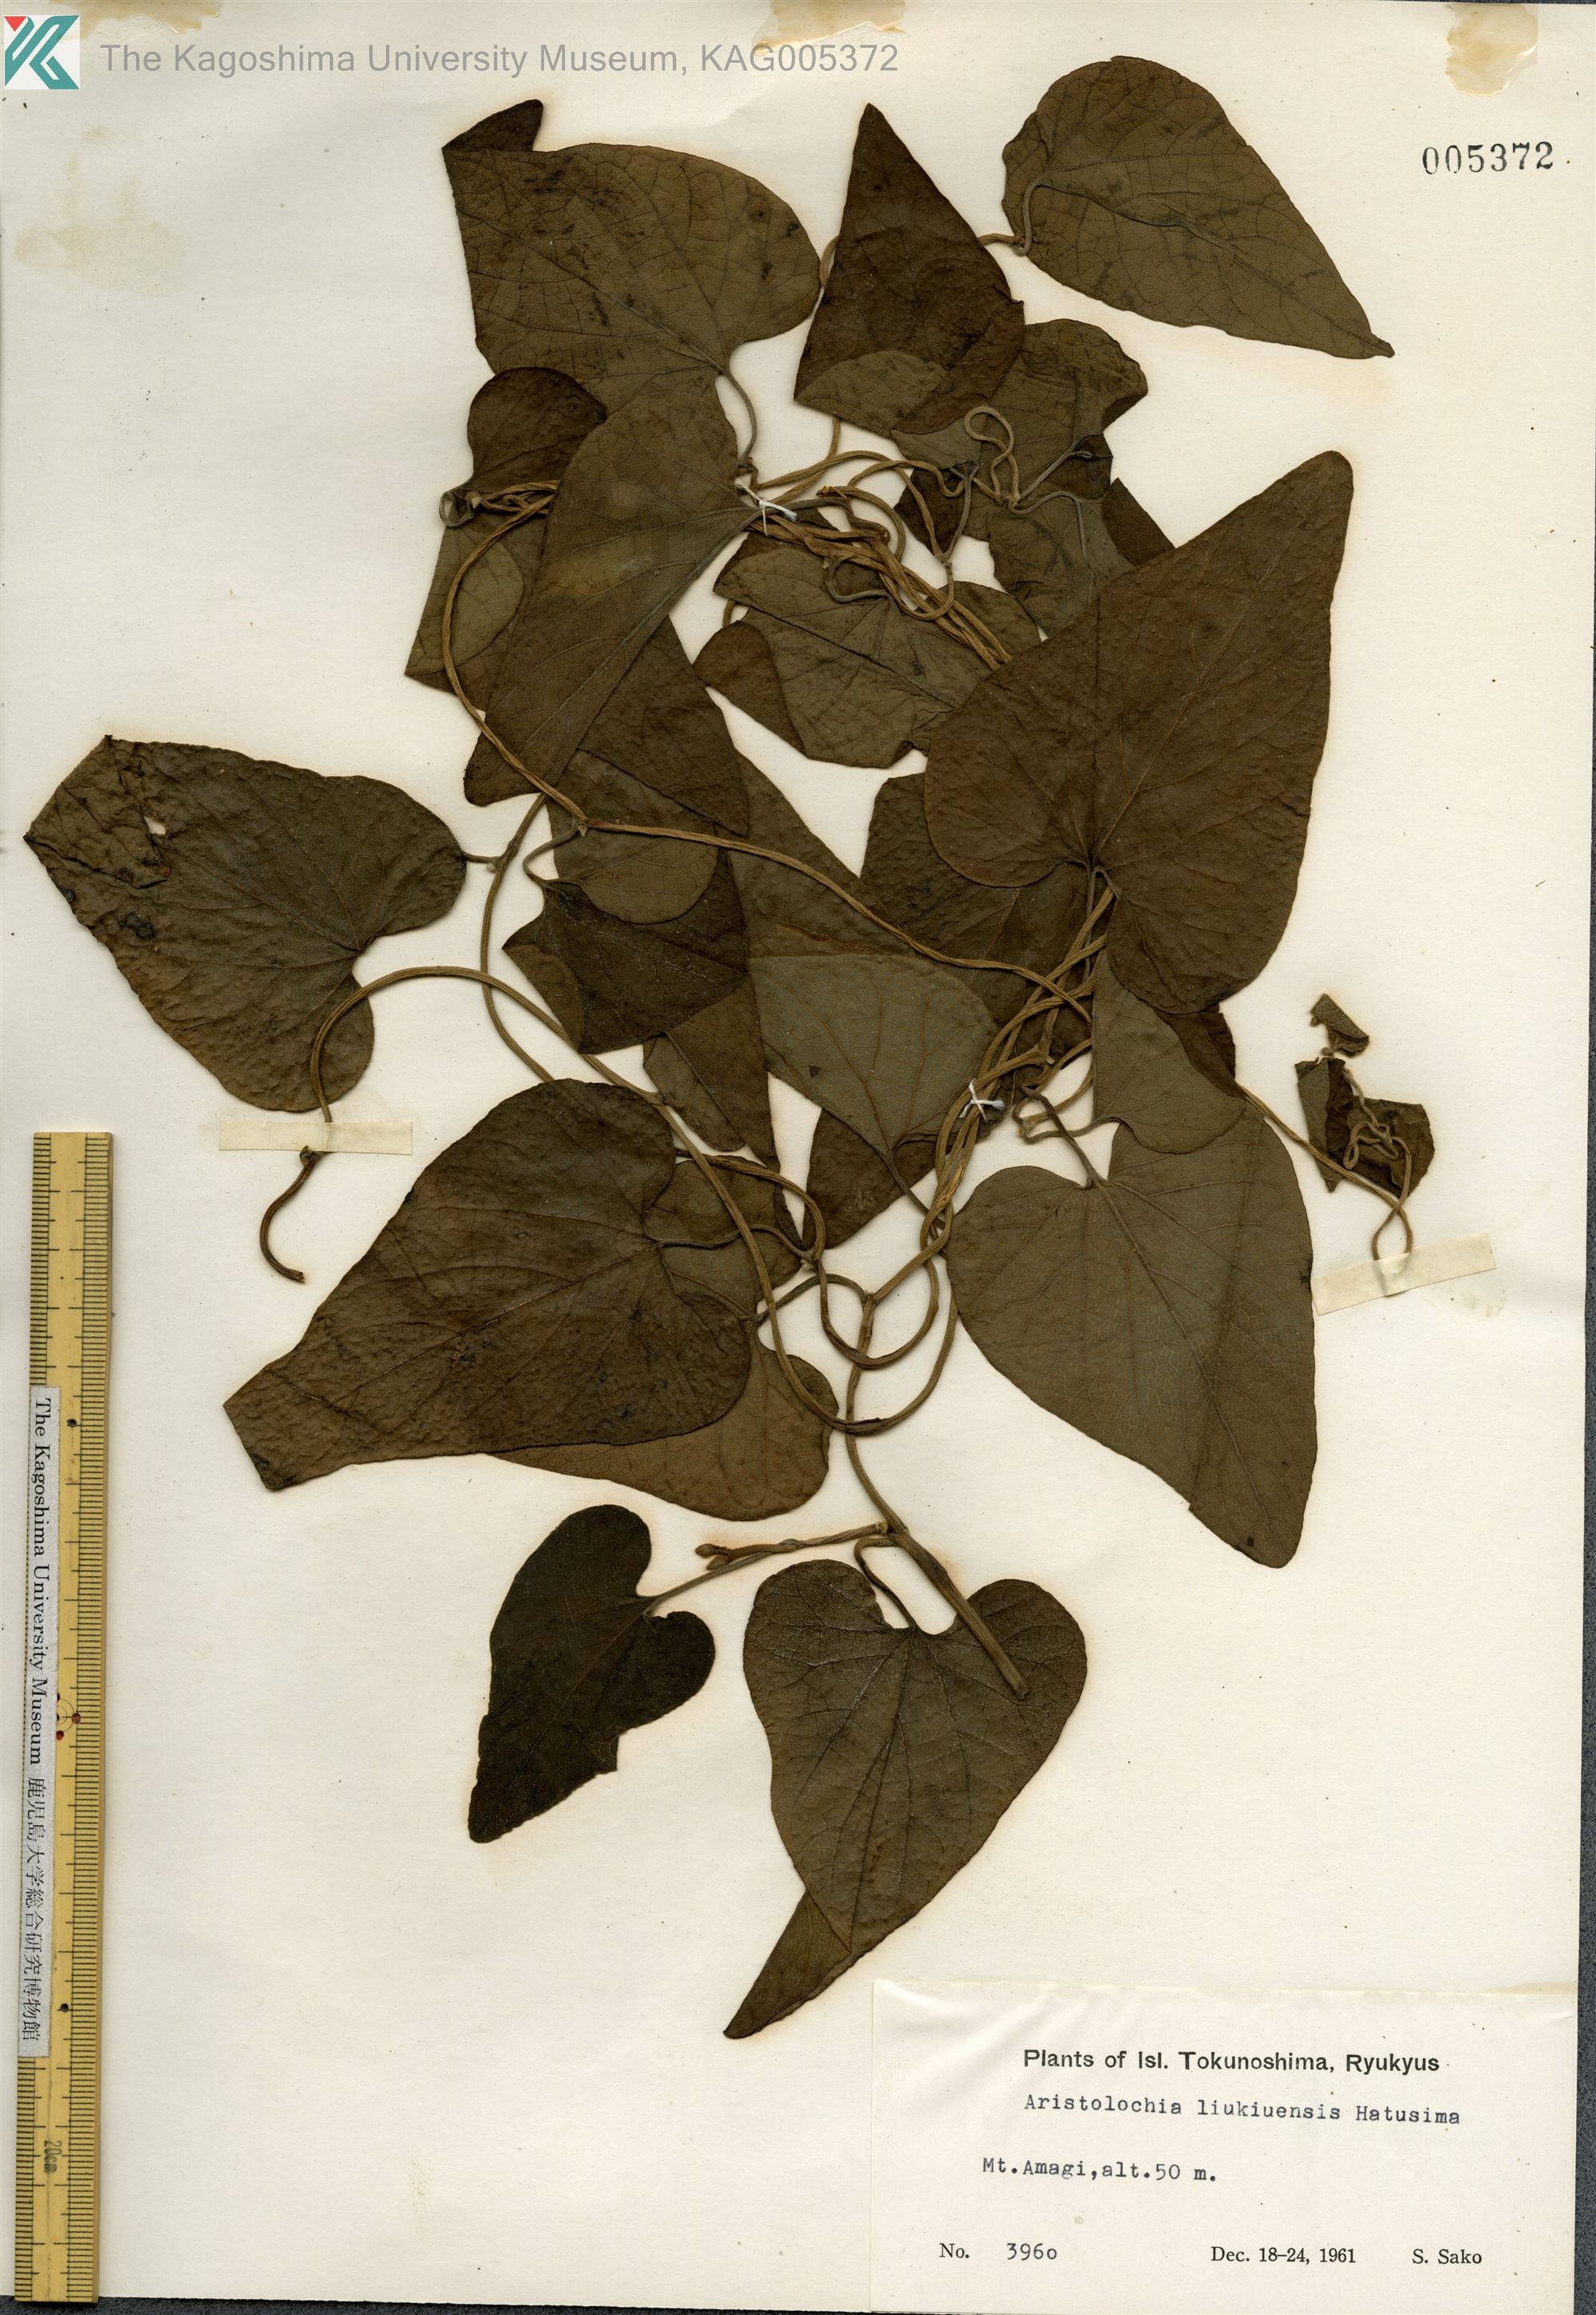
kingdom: Plantae
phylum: Tracheophyta
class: Magnoliopsida
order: Piperales
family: Aristolochiaceae
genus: Isotrema
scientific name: Isotrema liukiuense
